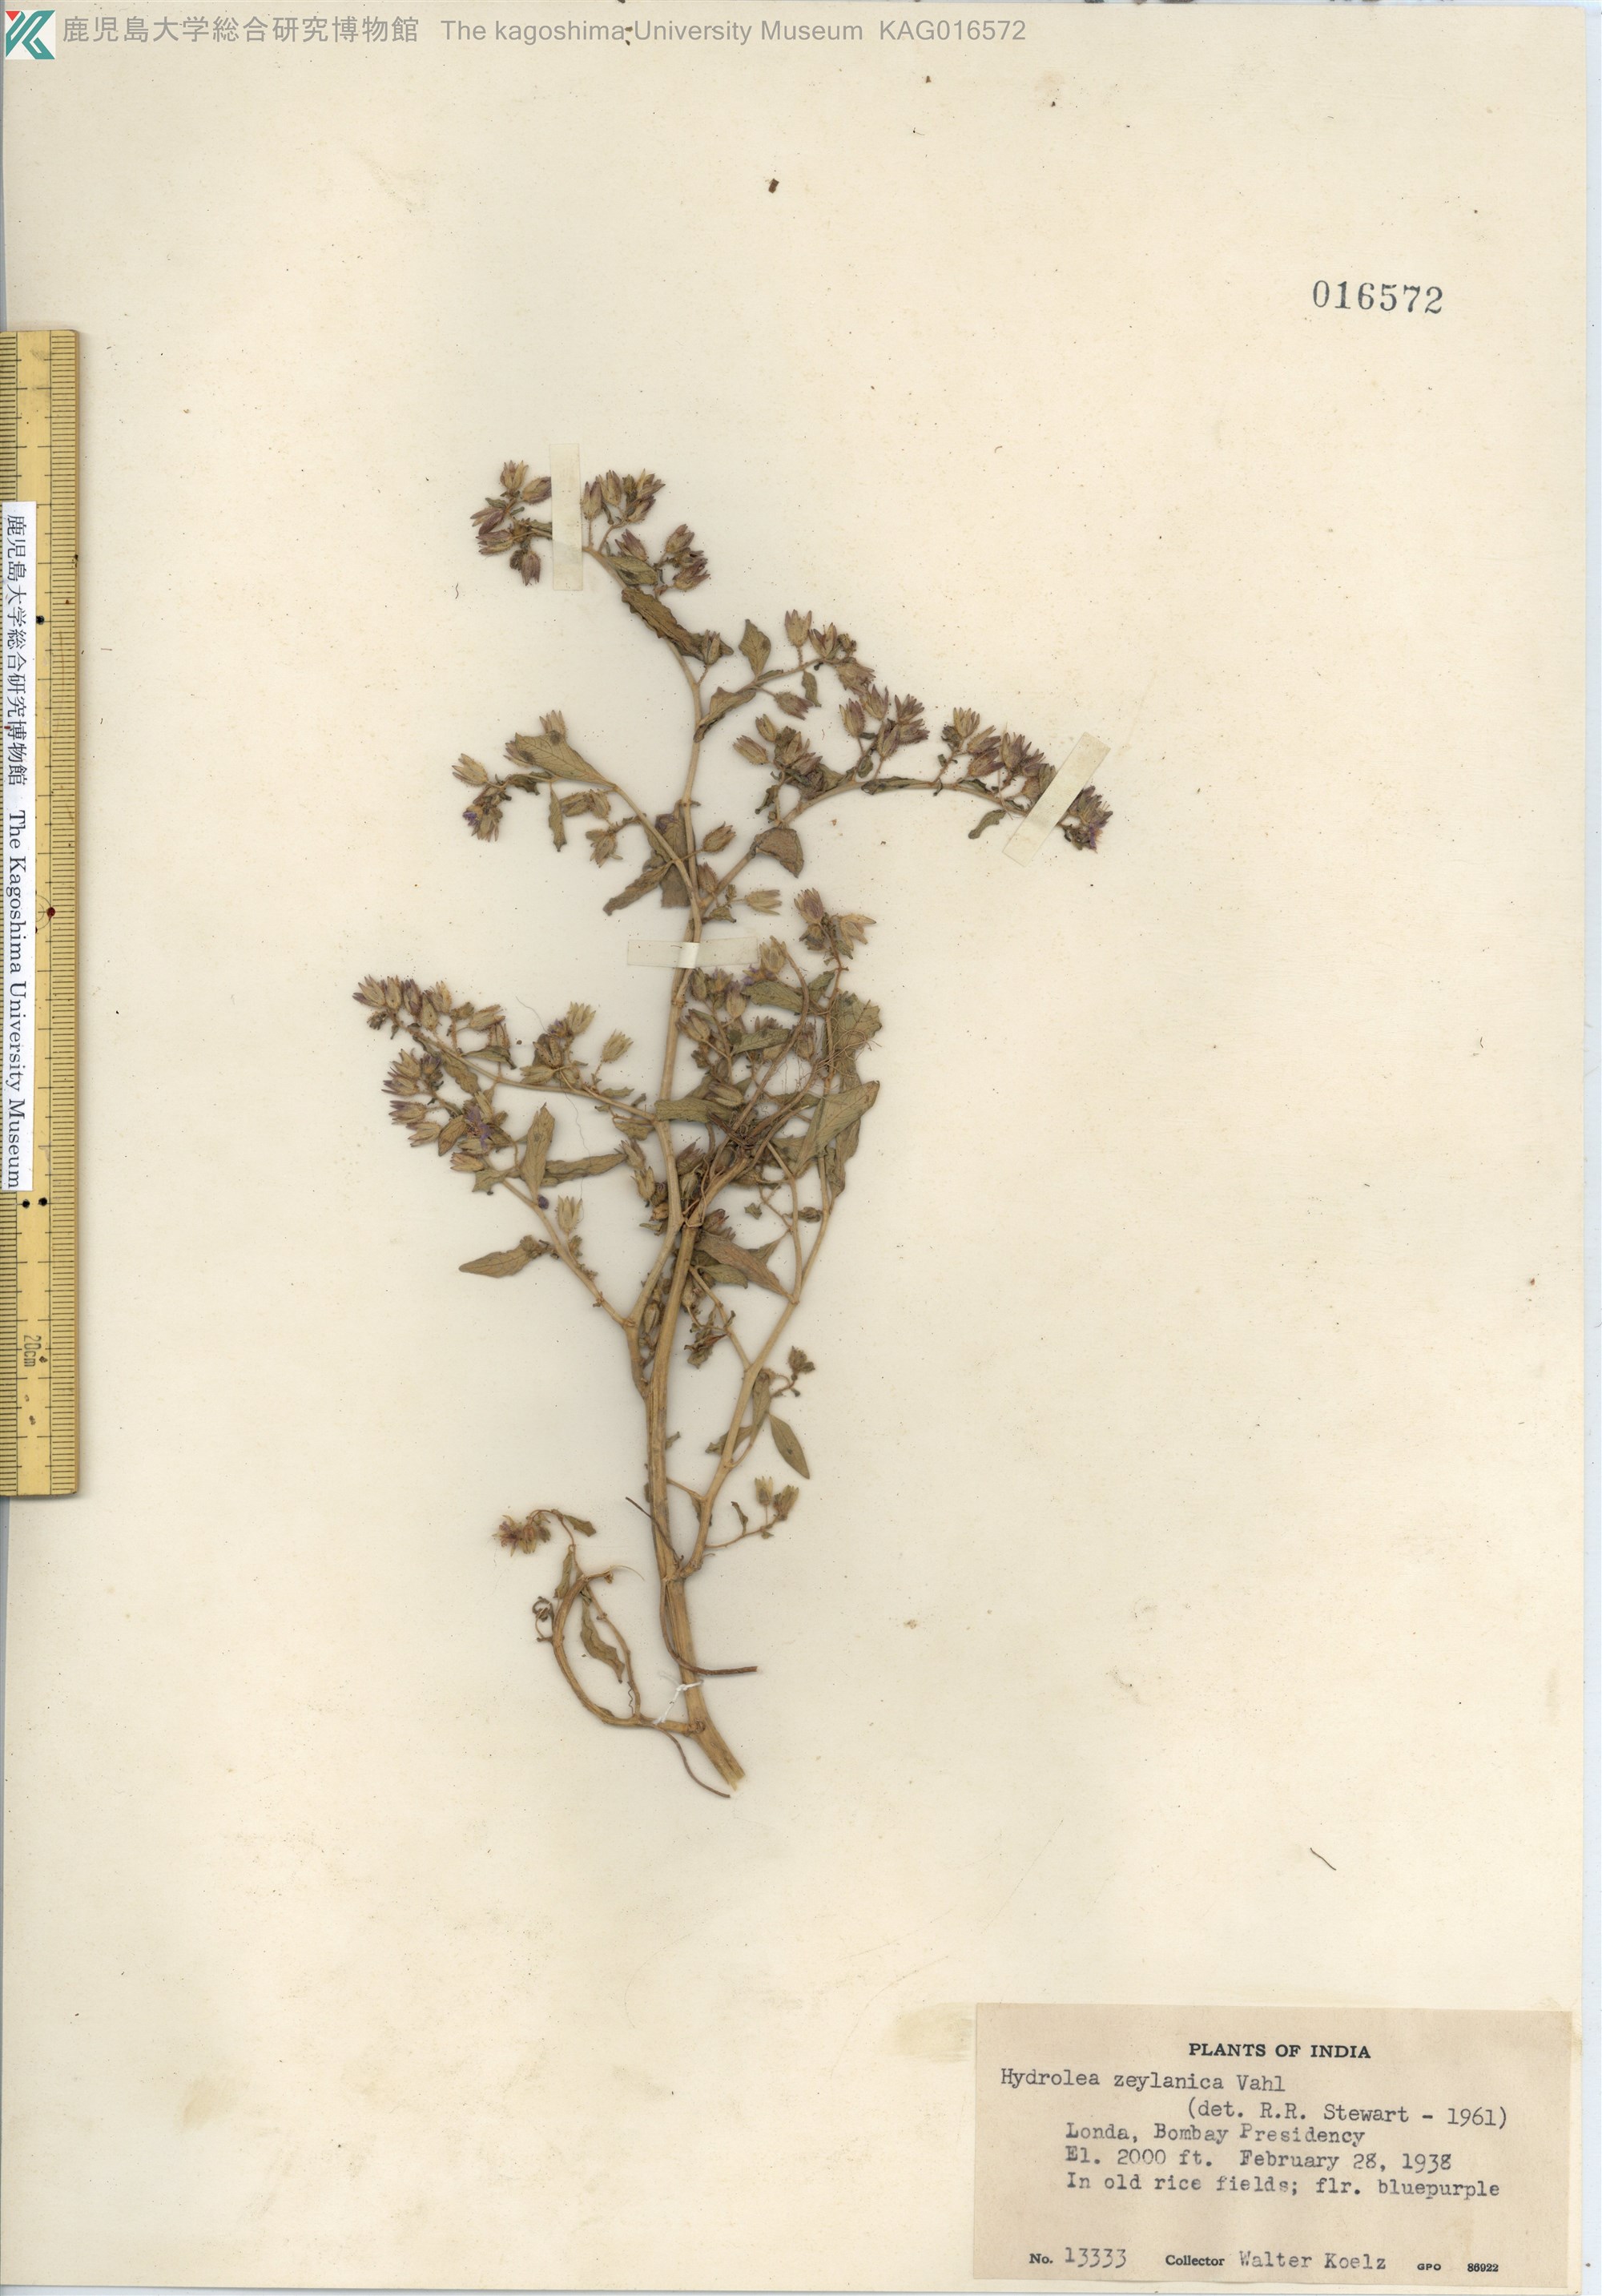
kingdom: Plantae
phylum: Tracheophyta
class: Magnoliopsida
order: Solanales
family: Hydroleaceae
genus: Hydrolea
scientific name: Hydrolea zeylanica
